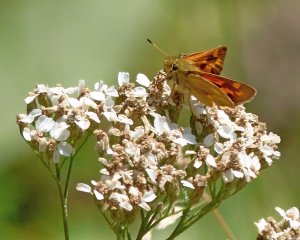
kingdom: Animalia
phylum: Arthropoda
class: Insecta
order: Lepidoptera
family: Hesperiidae
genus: Ochlodes
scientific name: Ochlodes sylvanoides
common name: Woodland Skipper
